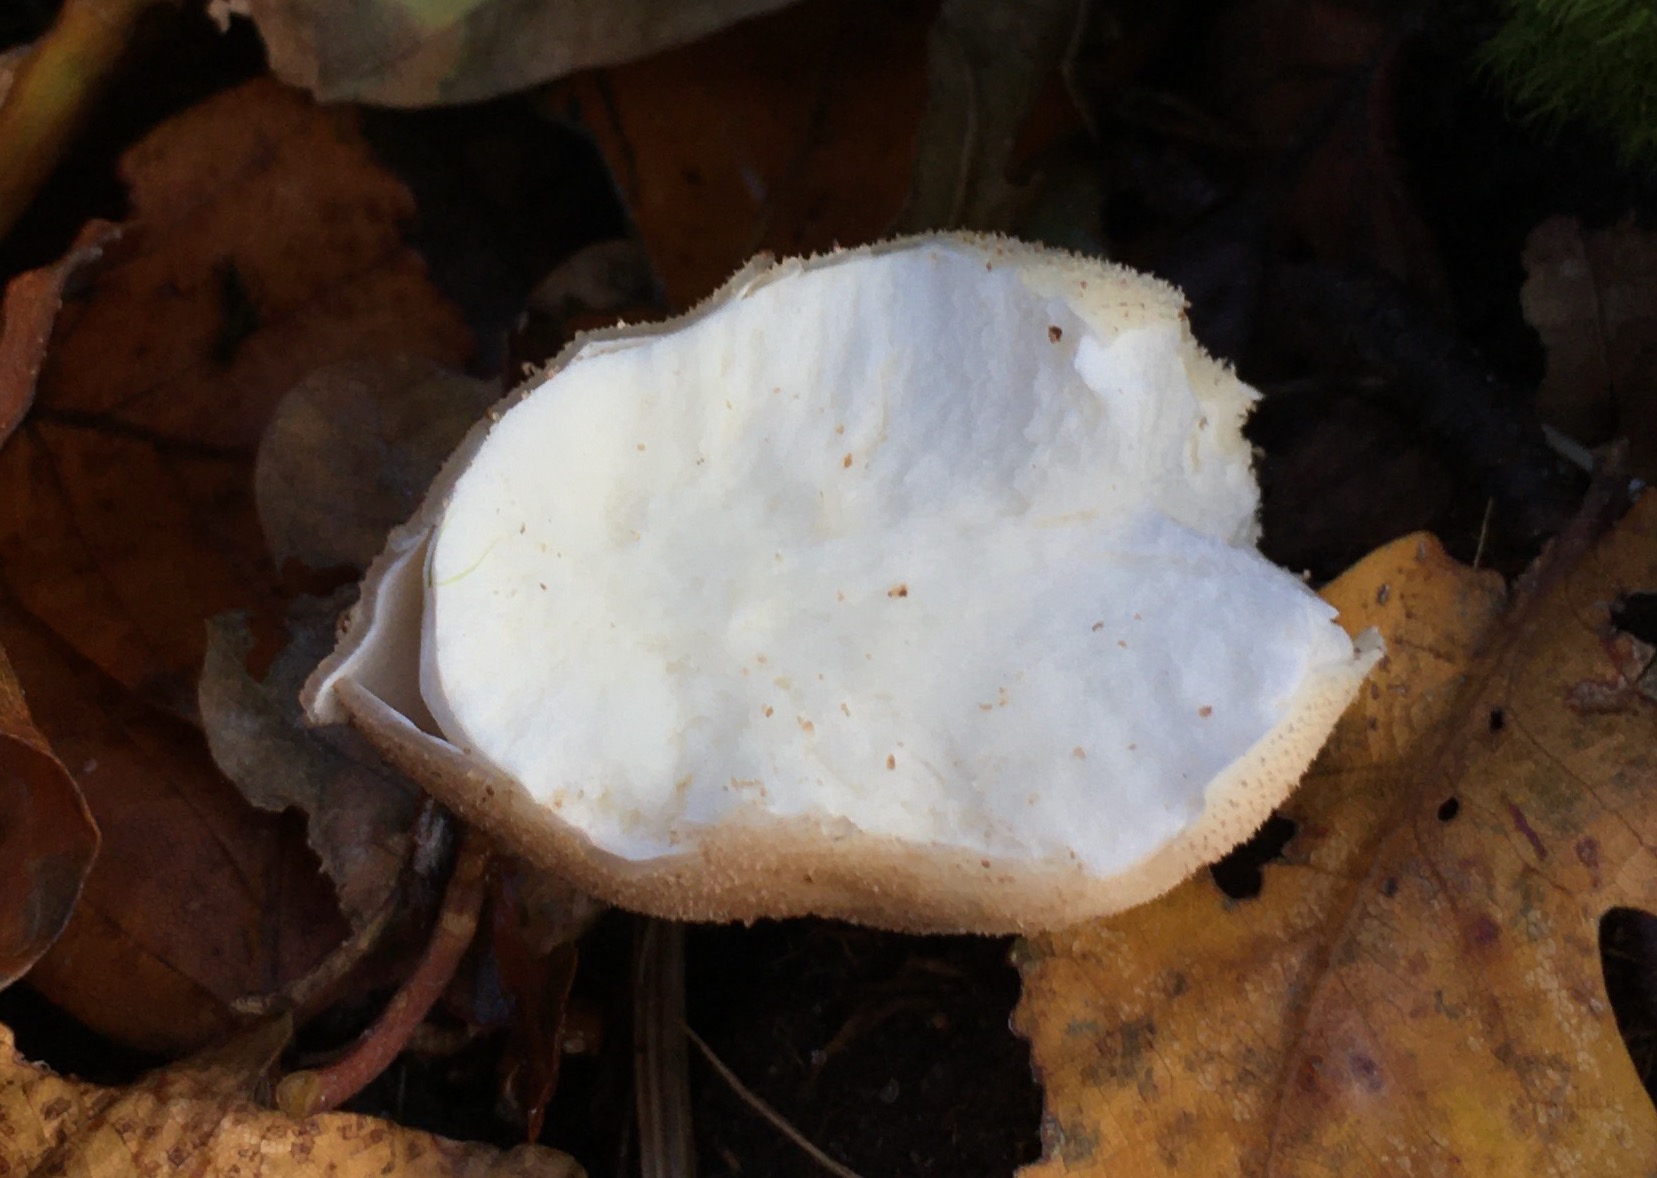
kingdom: Fungi
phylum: Basidiomycota
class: Agaricomycetes
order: Agaricales
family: Lycoperdaceae
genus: Apioperdon
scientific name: Apioperdon pyriforme
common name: pære-støvbold
